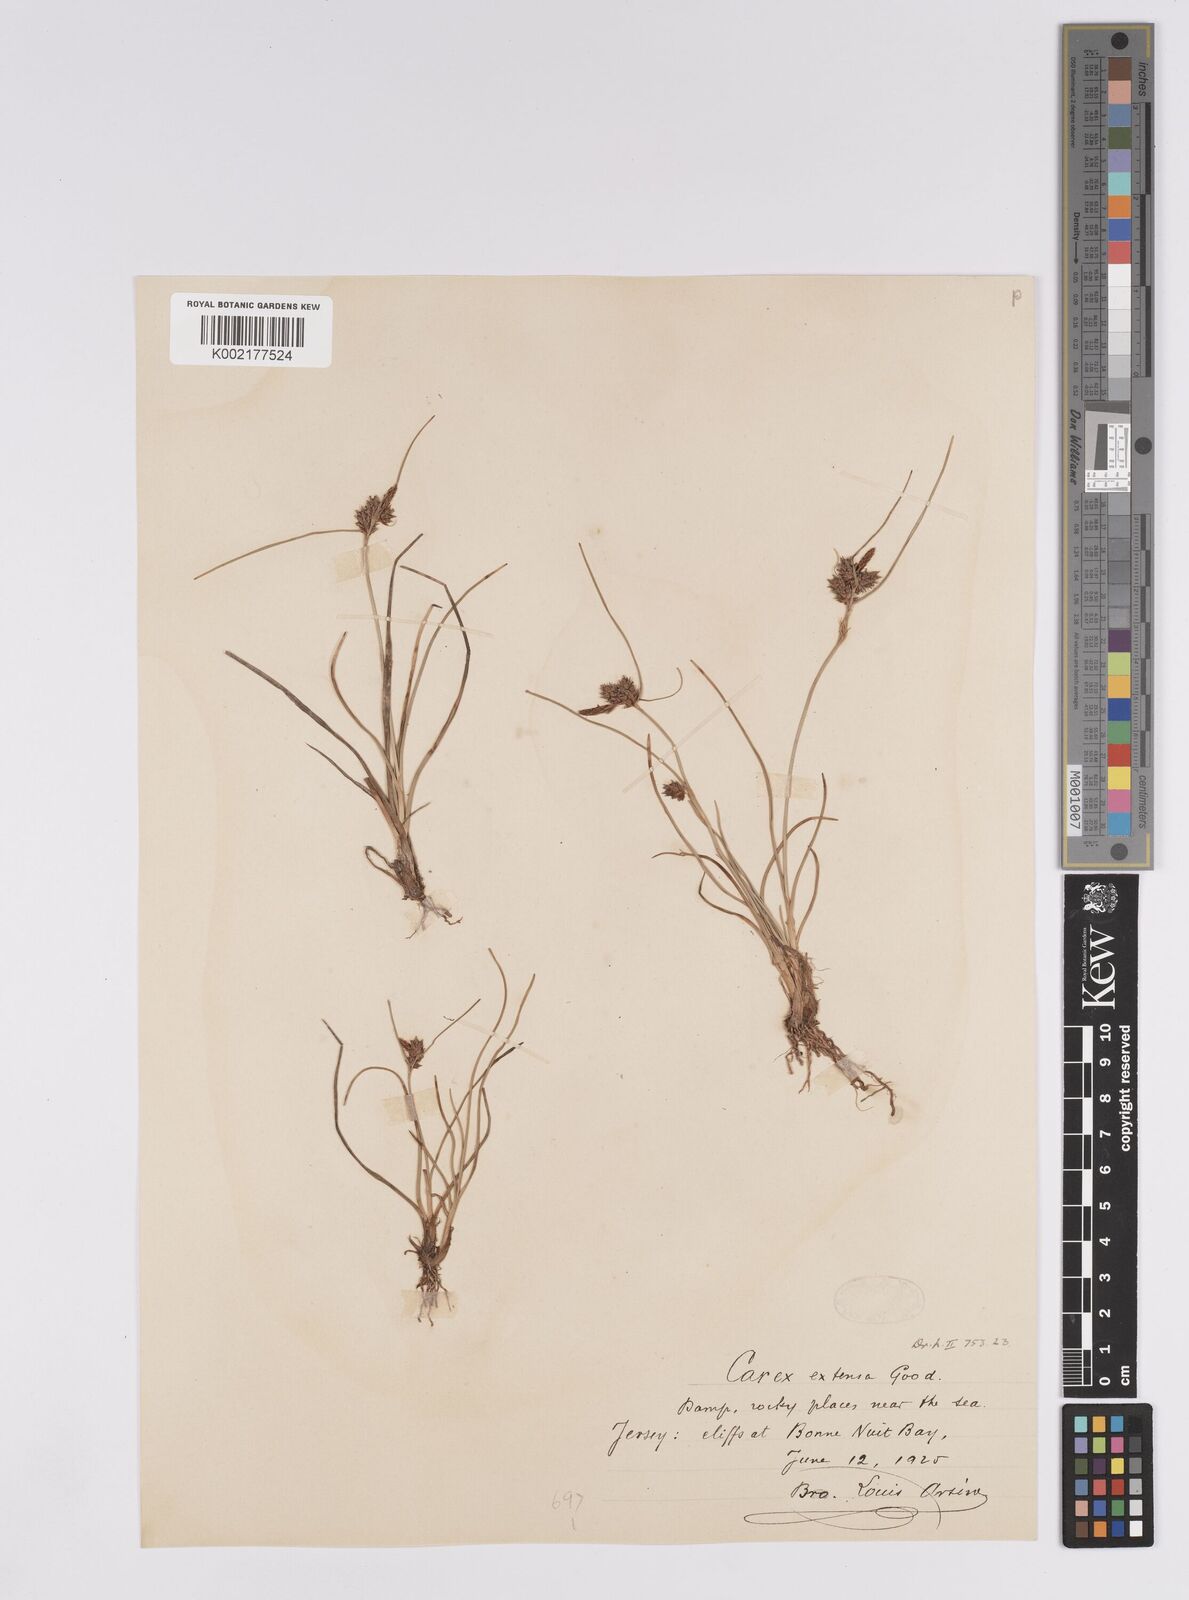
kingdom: Plantae
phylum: Tracheophyta
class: Liliopsida
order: Poales
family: Cyperaceae
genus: Carex
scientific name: Carex extensa
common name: Long-bracted sedge
